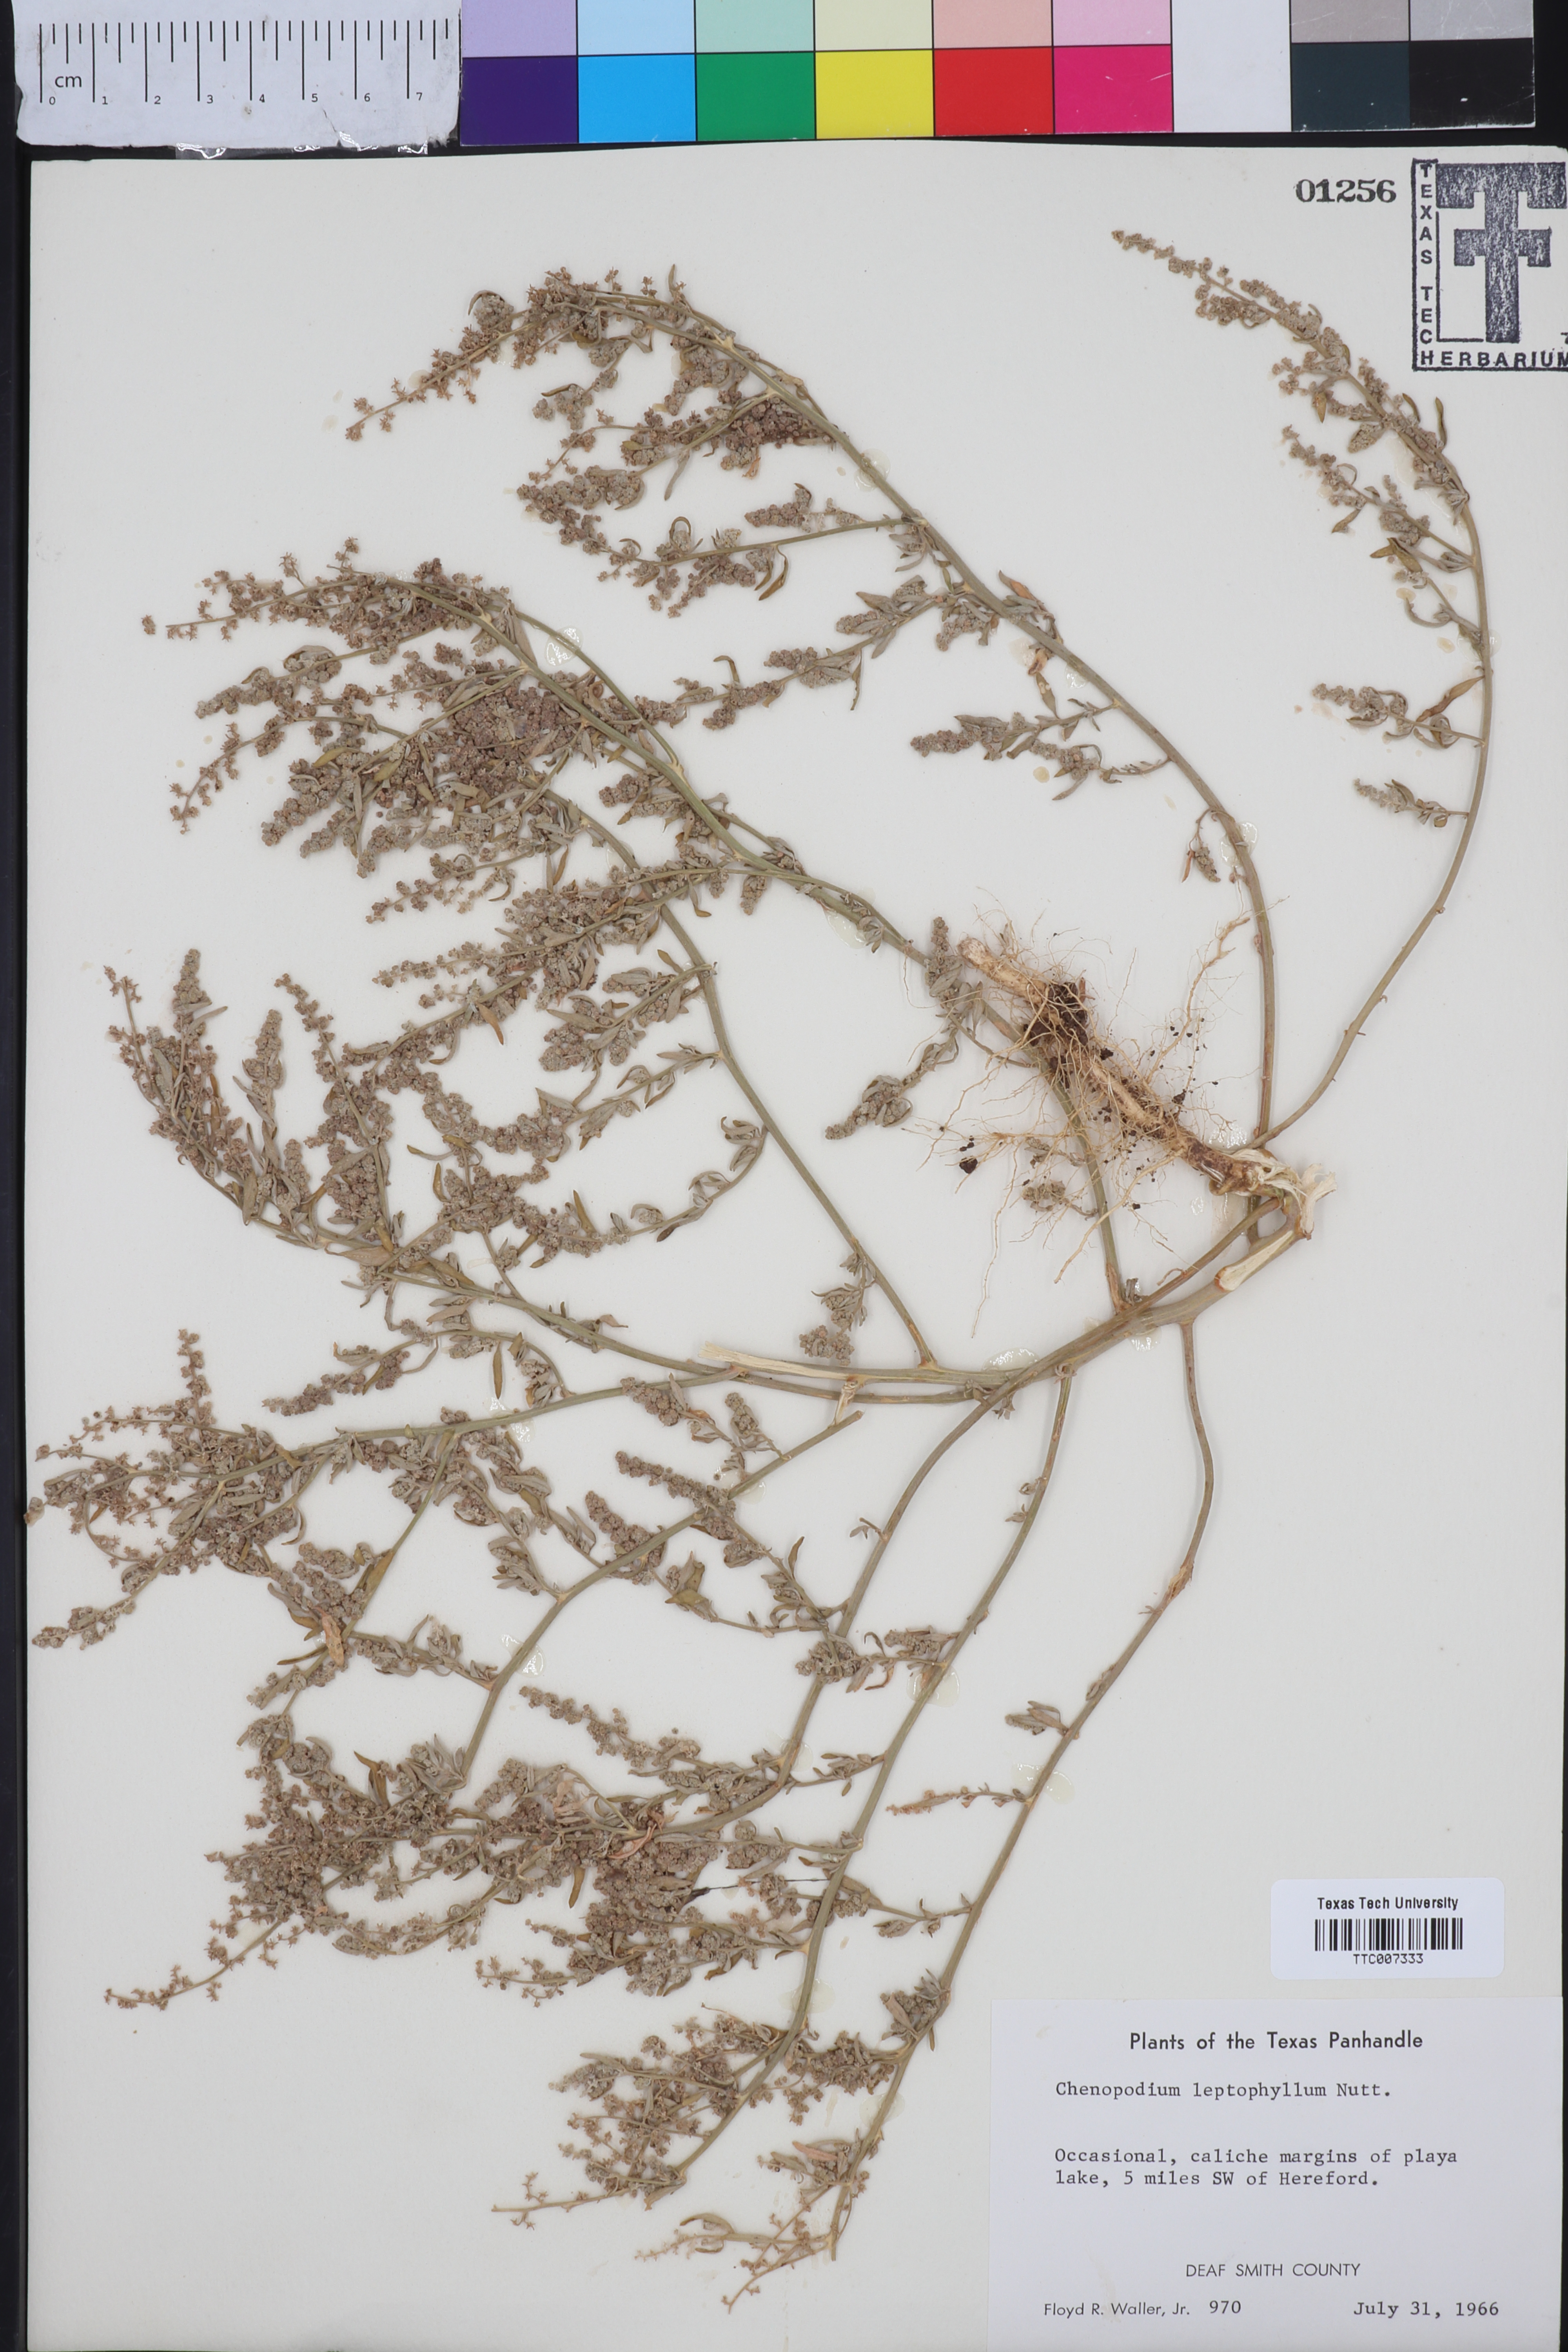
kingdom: Plantae
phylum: Tracheophyta
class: Magnoliopsida
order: Caryophyllales
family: Amaranthaceae
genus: Chenopodium
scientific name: Chenopodium leptophyllum
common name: Narrow-leaf goosefoot
